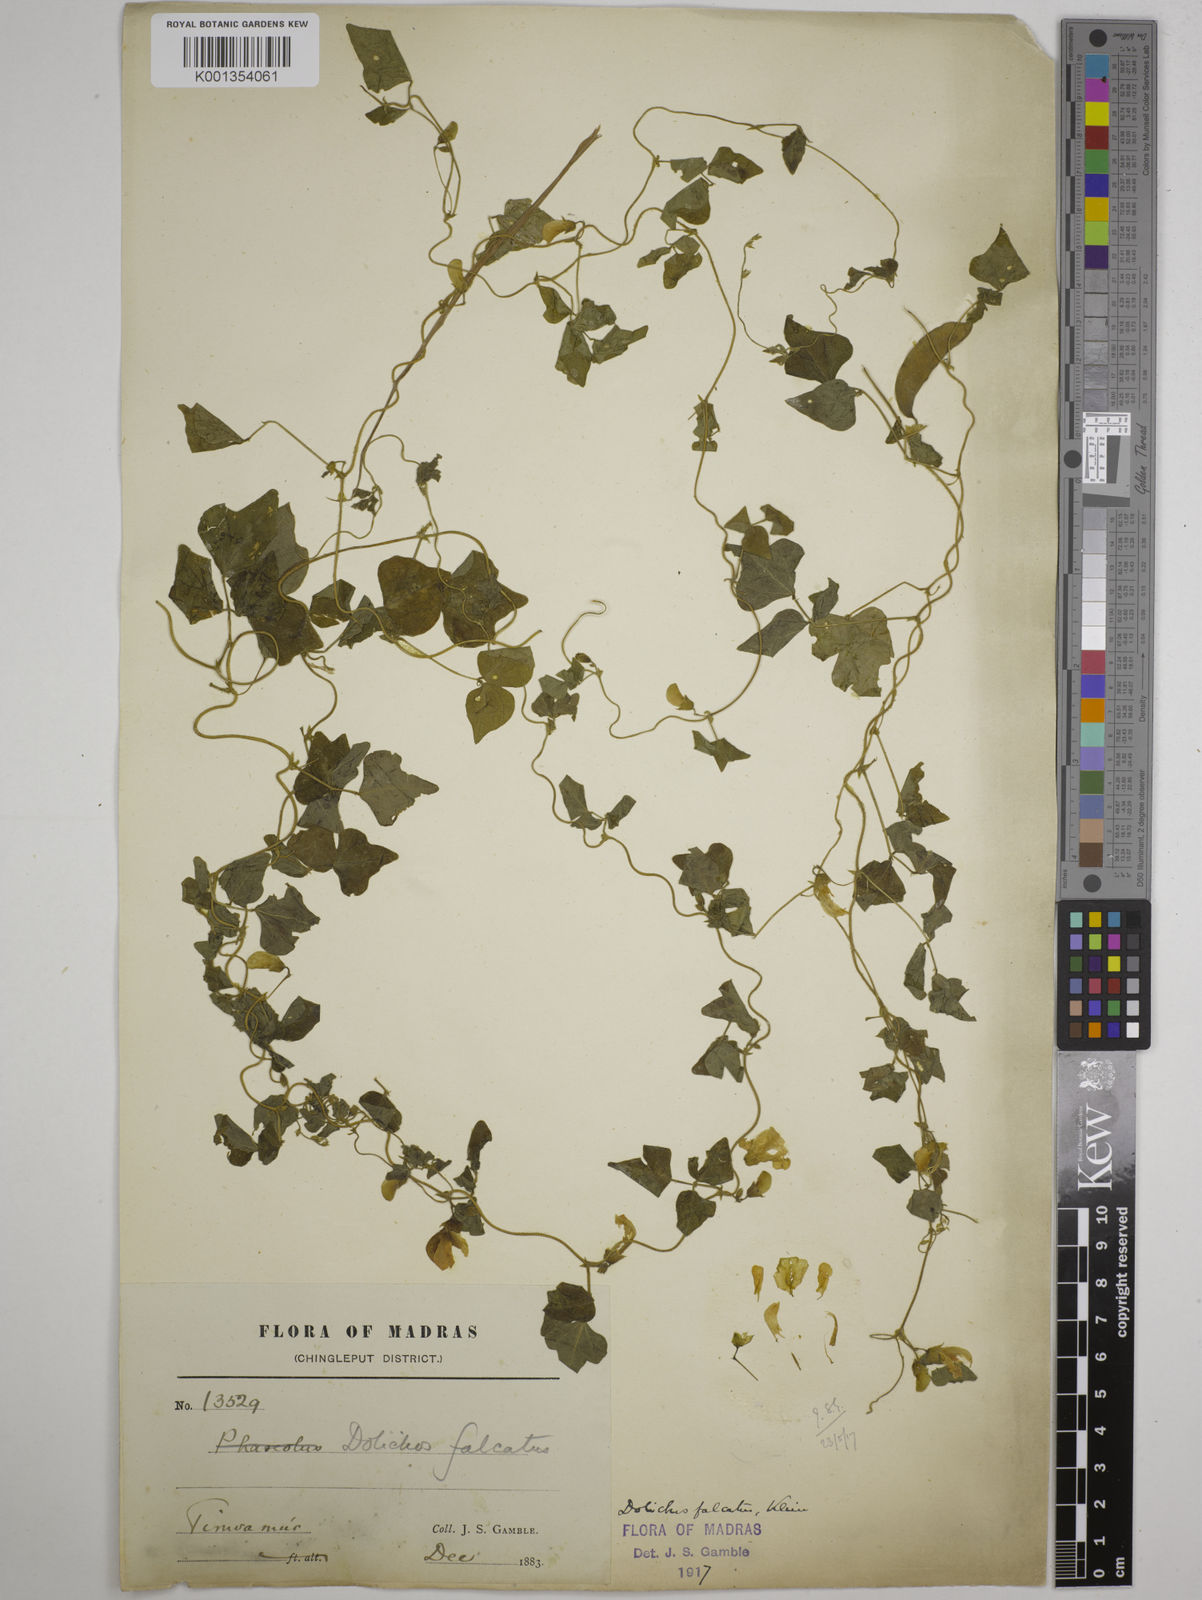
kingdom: Plantae
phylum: Tracheophyta
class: Magnoliopsida
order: Fabales
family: Fabaceae
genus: Dolichos
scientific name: Dolichos
